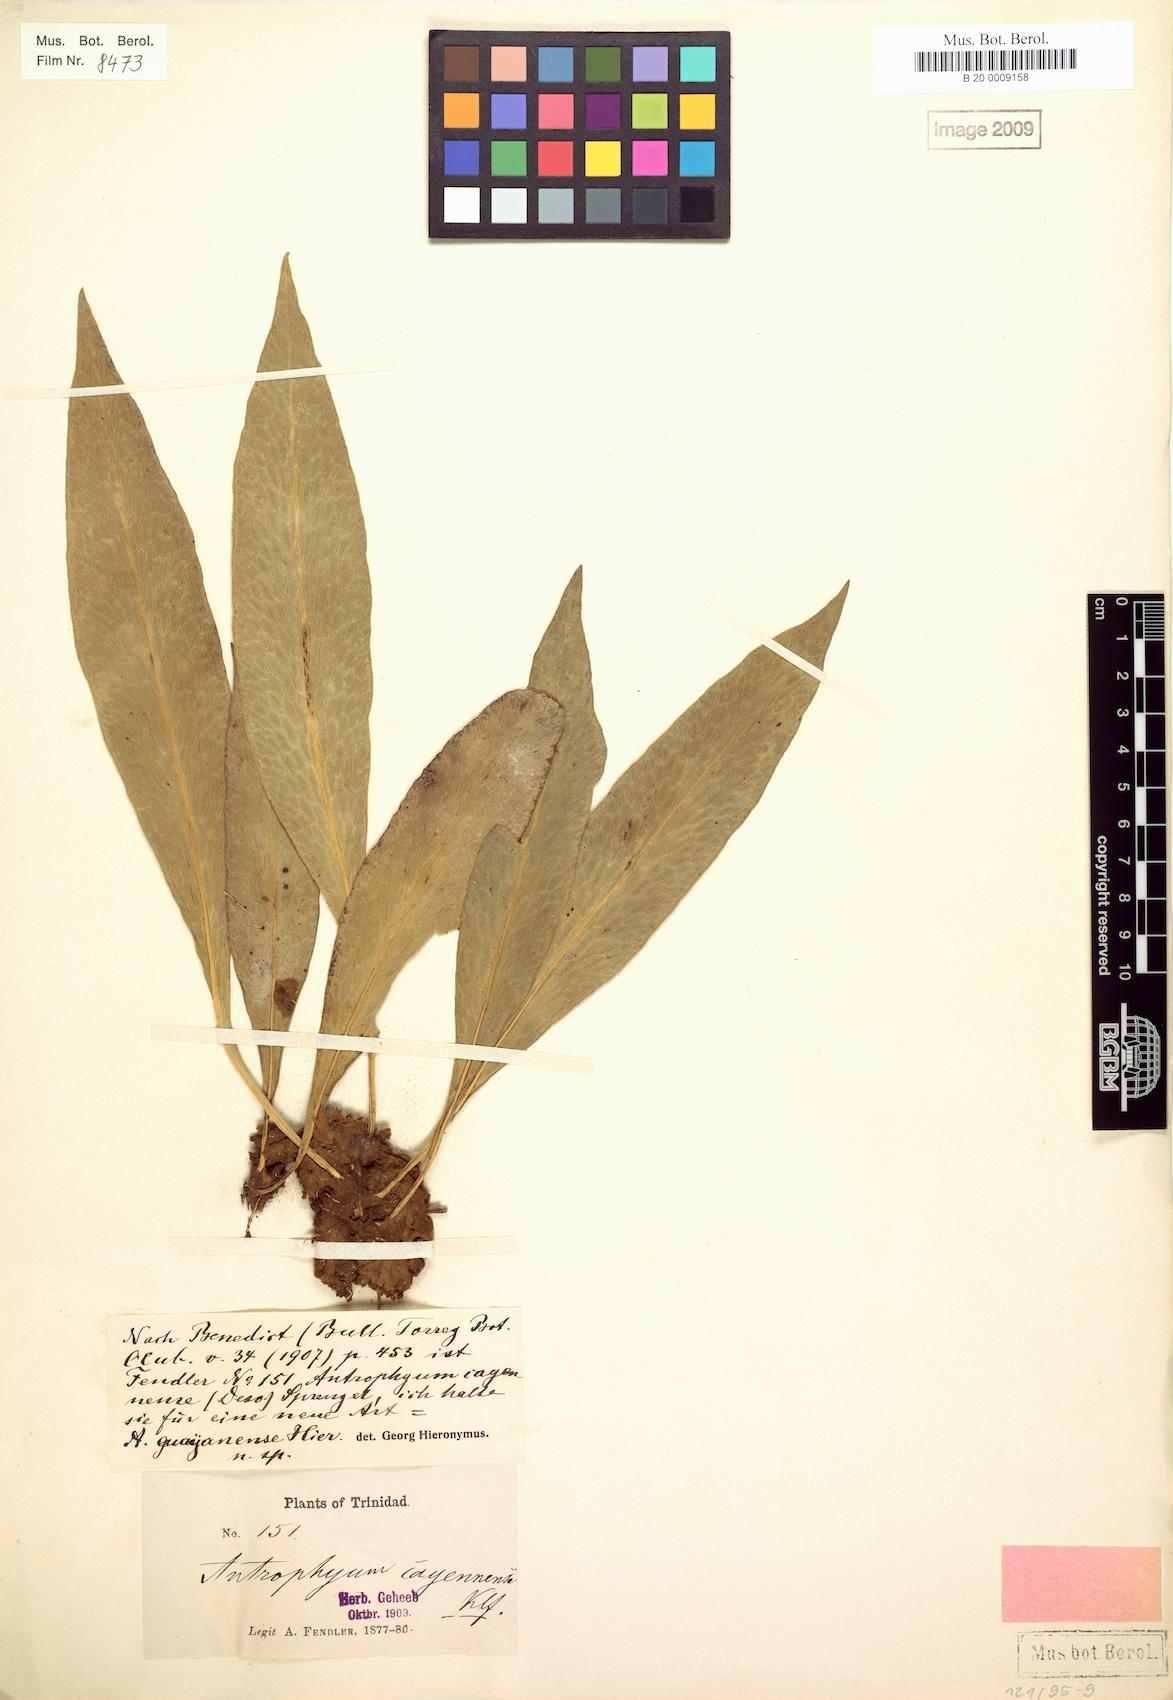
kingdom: Plantae
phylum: Tracheophyta
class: Polypodiopsida
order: Polypodiales
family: Pteridaceae
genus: Polytaenium
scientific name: Polytaenium guayanense
